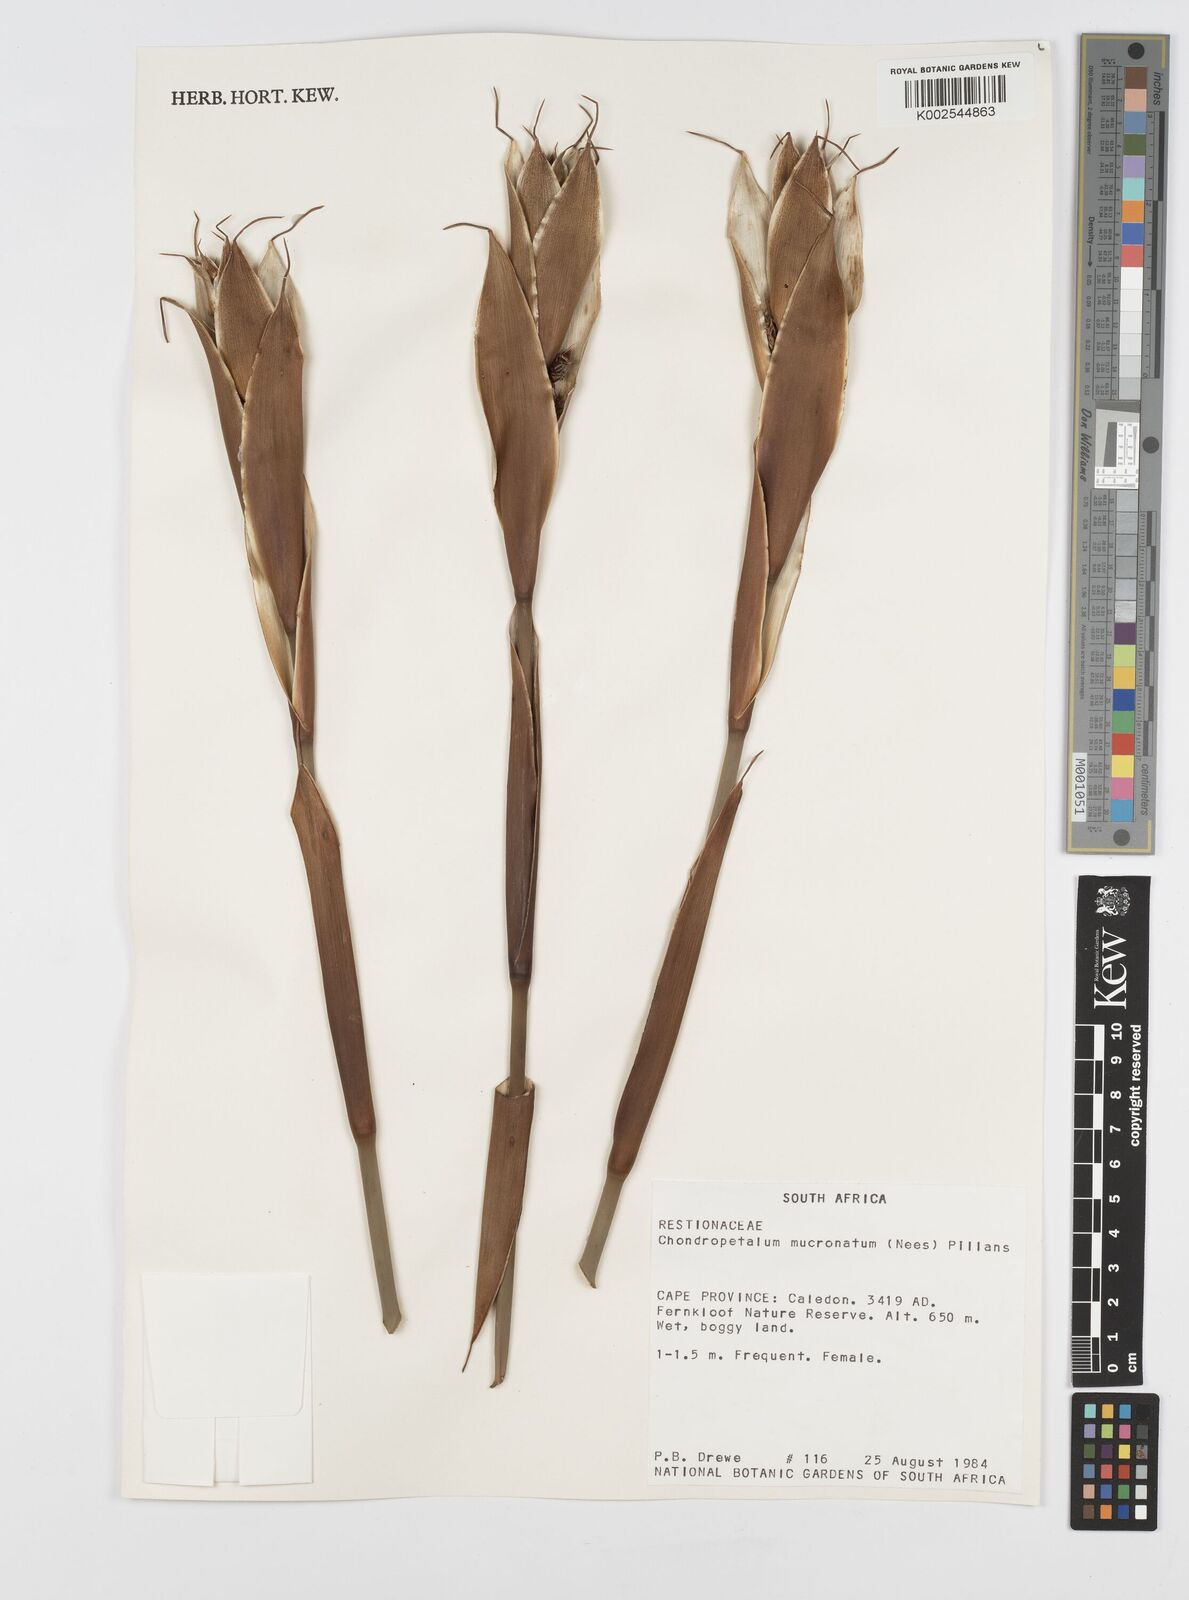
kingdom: Plantae
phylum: Tracheophyta
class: Liliopsida
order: Poales
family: Restionaceae
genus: Elegia
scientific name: Elegia mucronata
